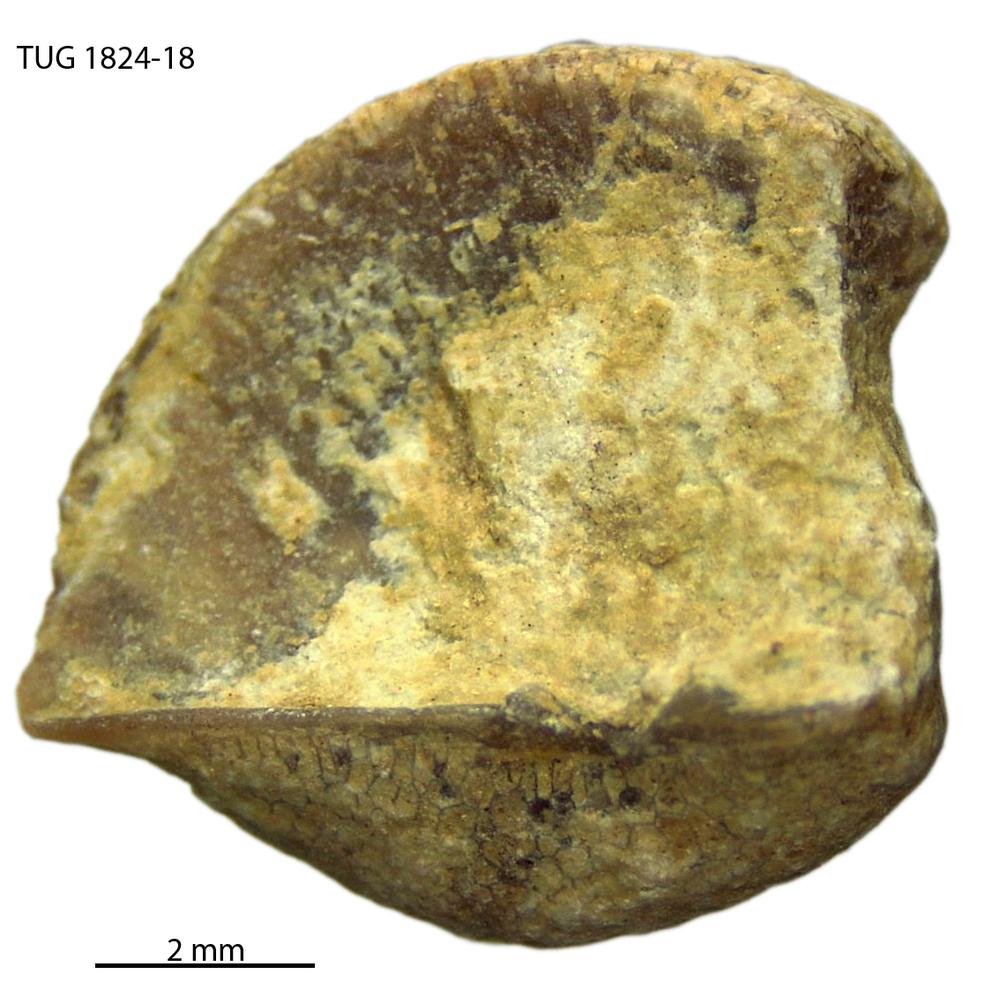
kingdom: Animalia
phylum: Brachiopoda
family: Sowerbyellidae
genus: Sowerbyella
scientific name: Sowerbyella
